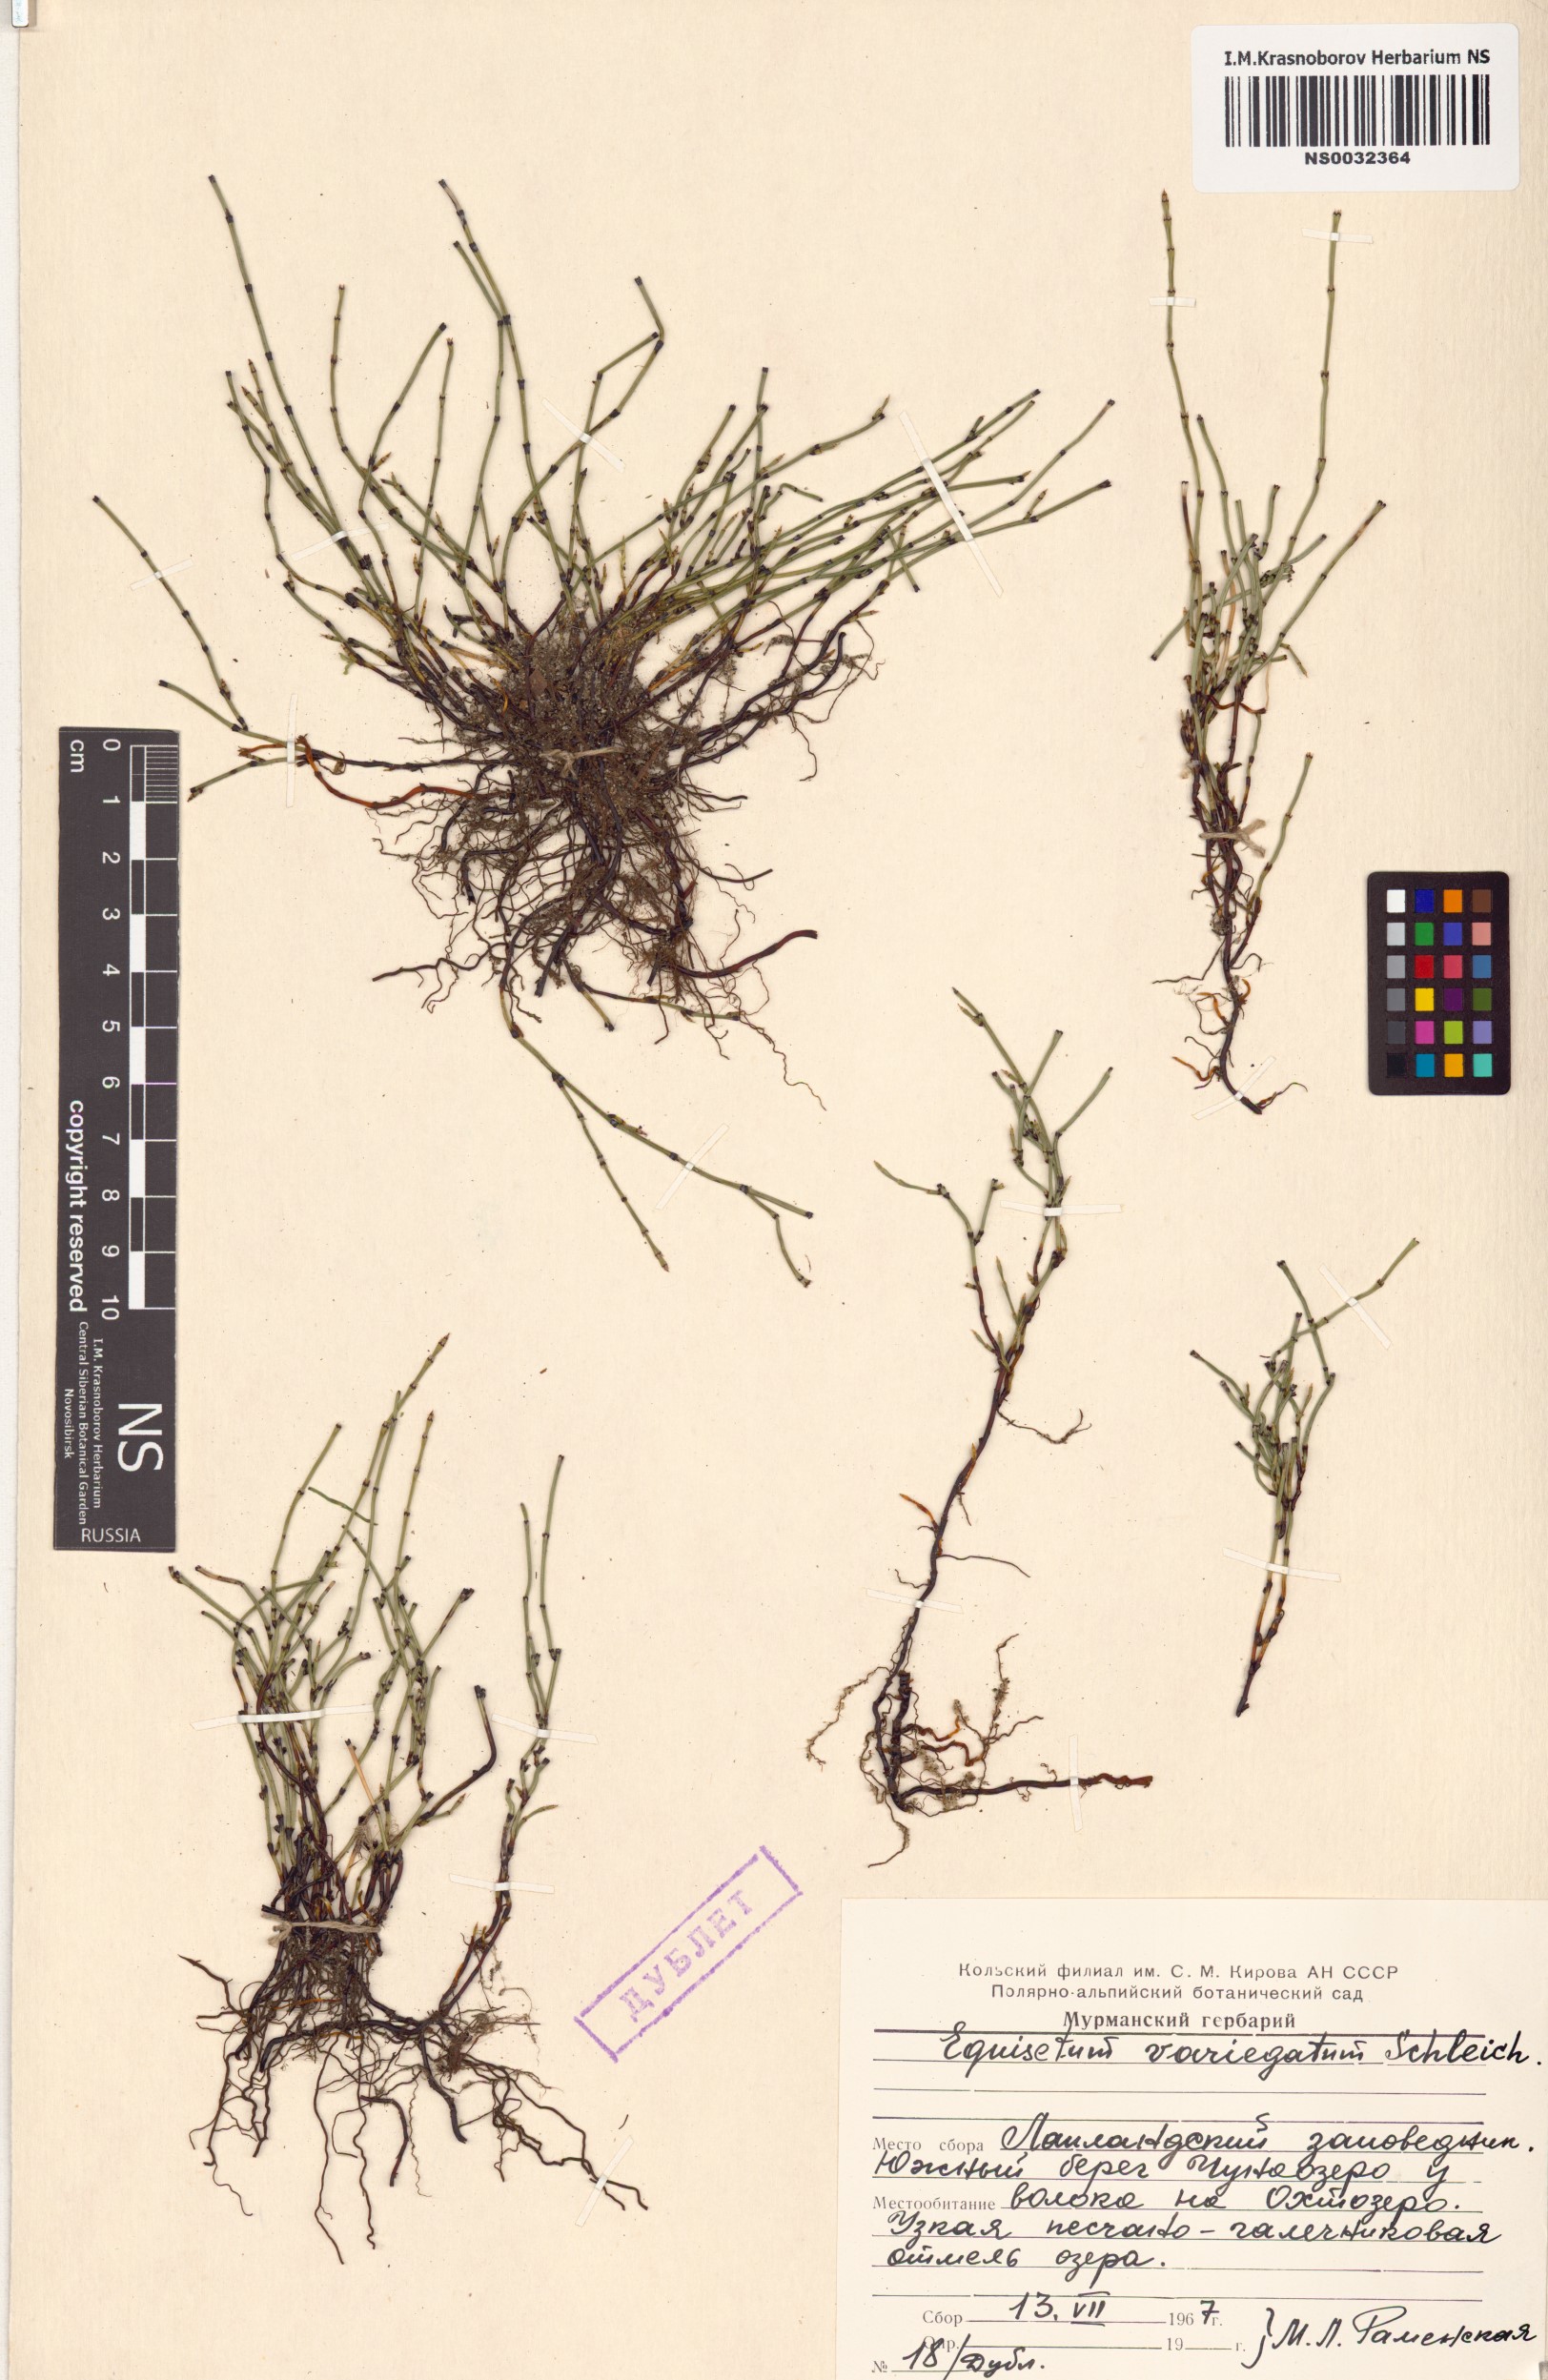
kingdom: Plantae
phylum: Tracheophyta
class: Polypodiopsida
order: Equisetales
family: Equisetaceae
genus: Equisetum
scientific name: Equisetum variegatum
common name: Variegated horsetail
